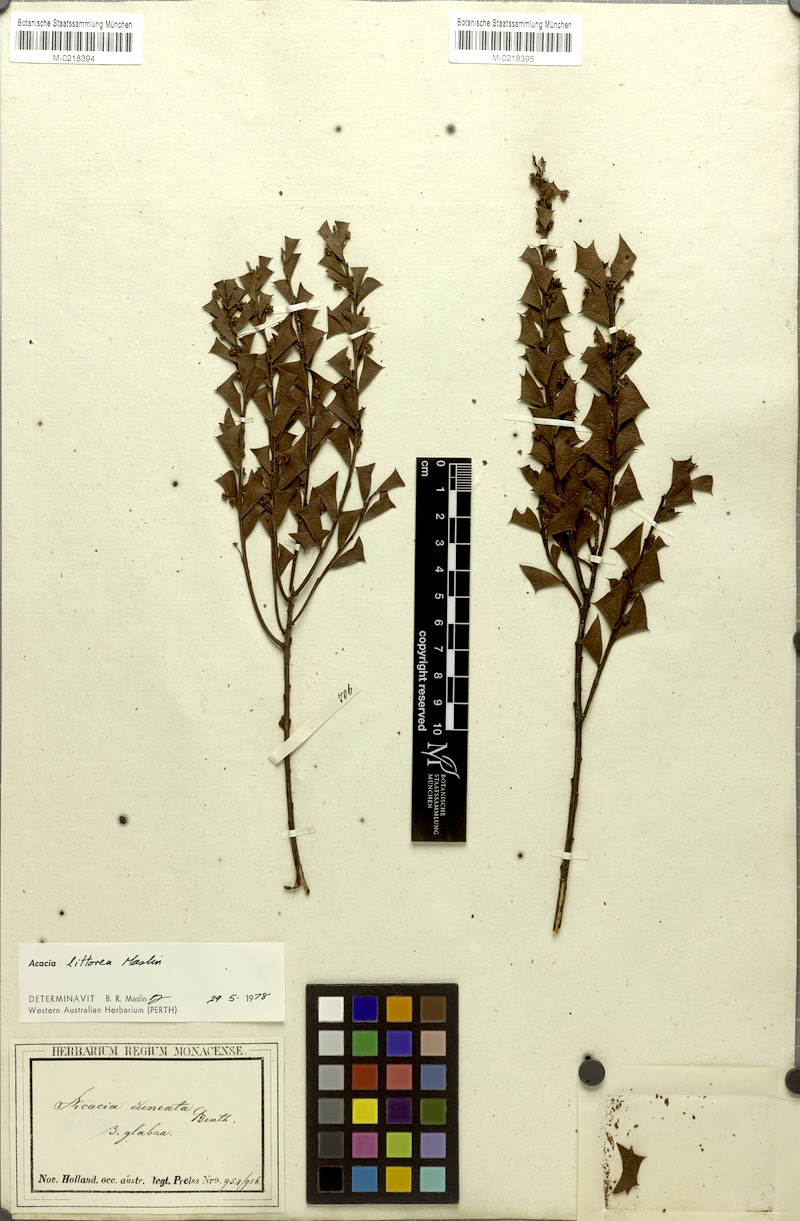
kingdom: Plantae
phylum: Tracheophyta
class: Magnoliopsida
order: Fabales
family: Fabaceae
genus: Acacia
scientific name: Acacia trapezoidea
